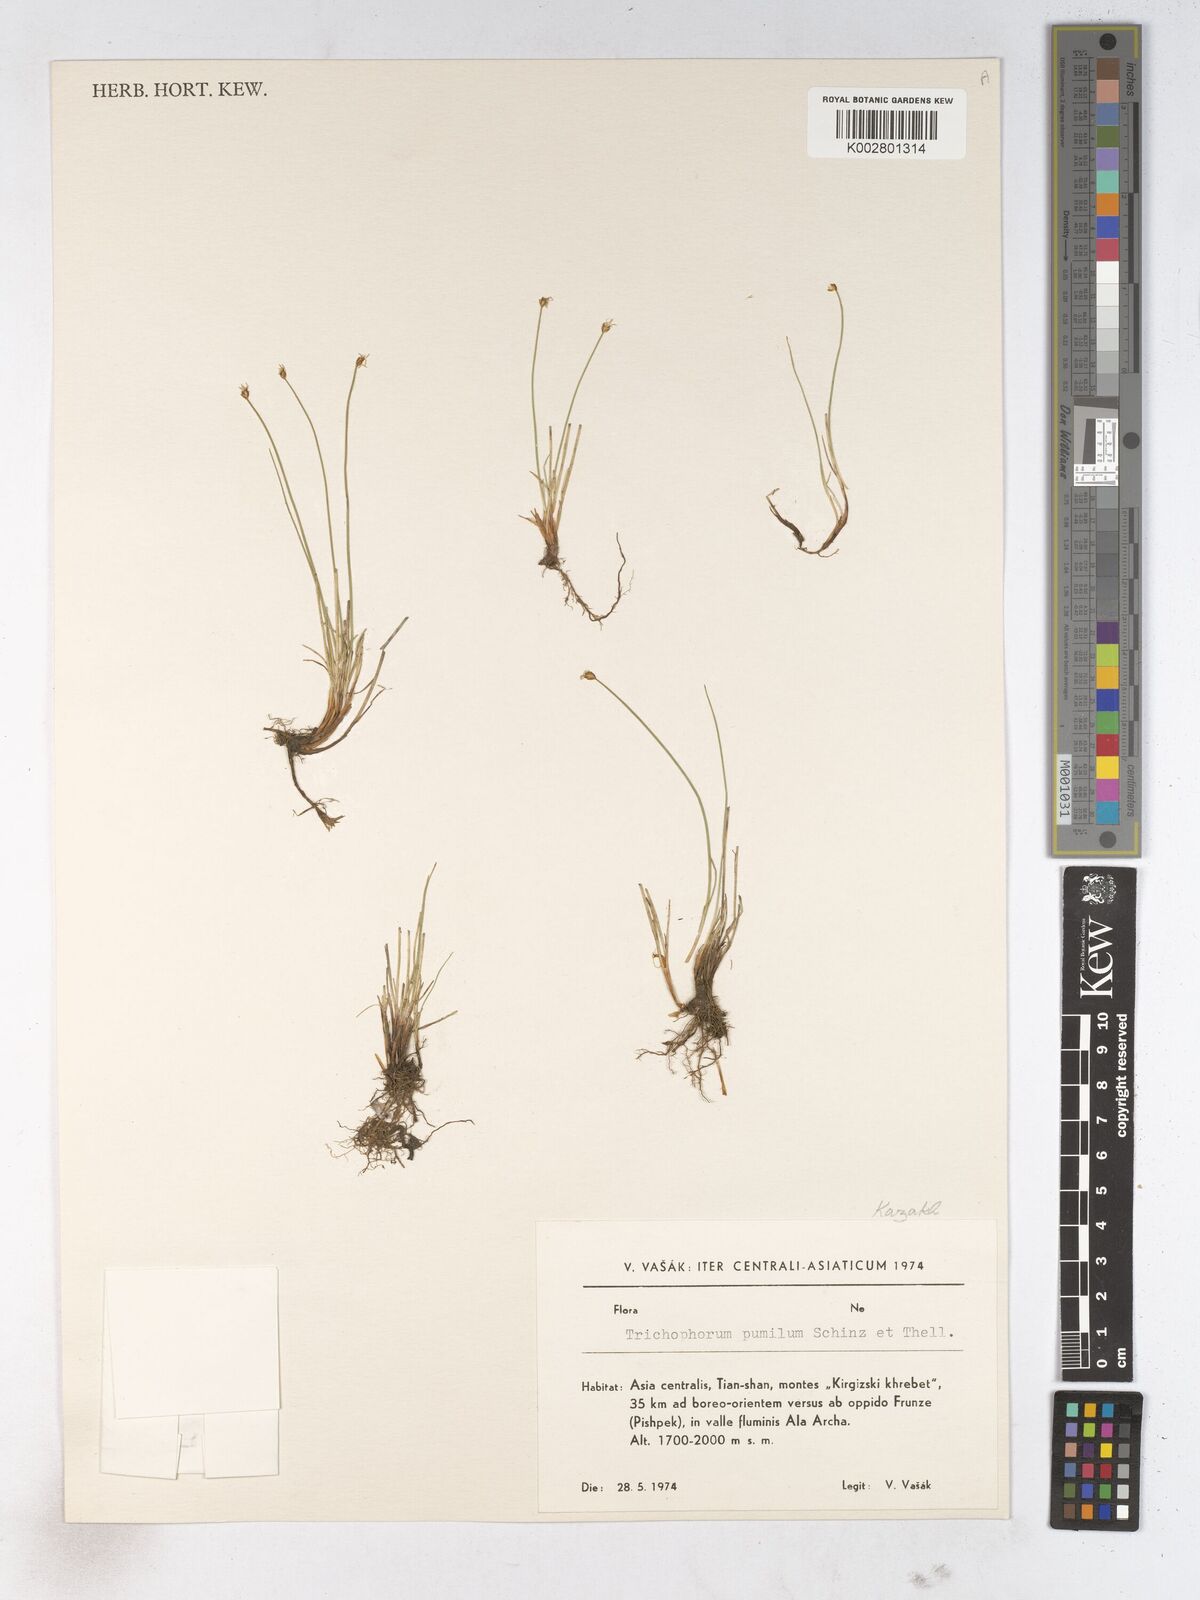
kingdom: Plantae
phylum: Tracheophyta
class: Liliopsida
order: Poales
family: Cyperaceae
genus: Trichophorum
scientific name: Trichophorum pumilum
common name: Rolland's bulrush
